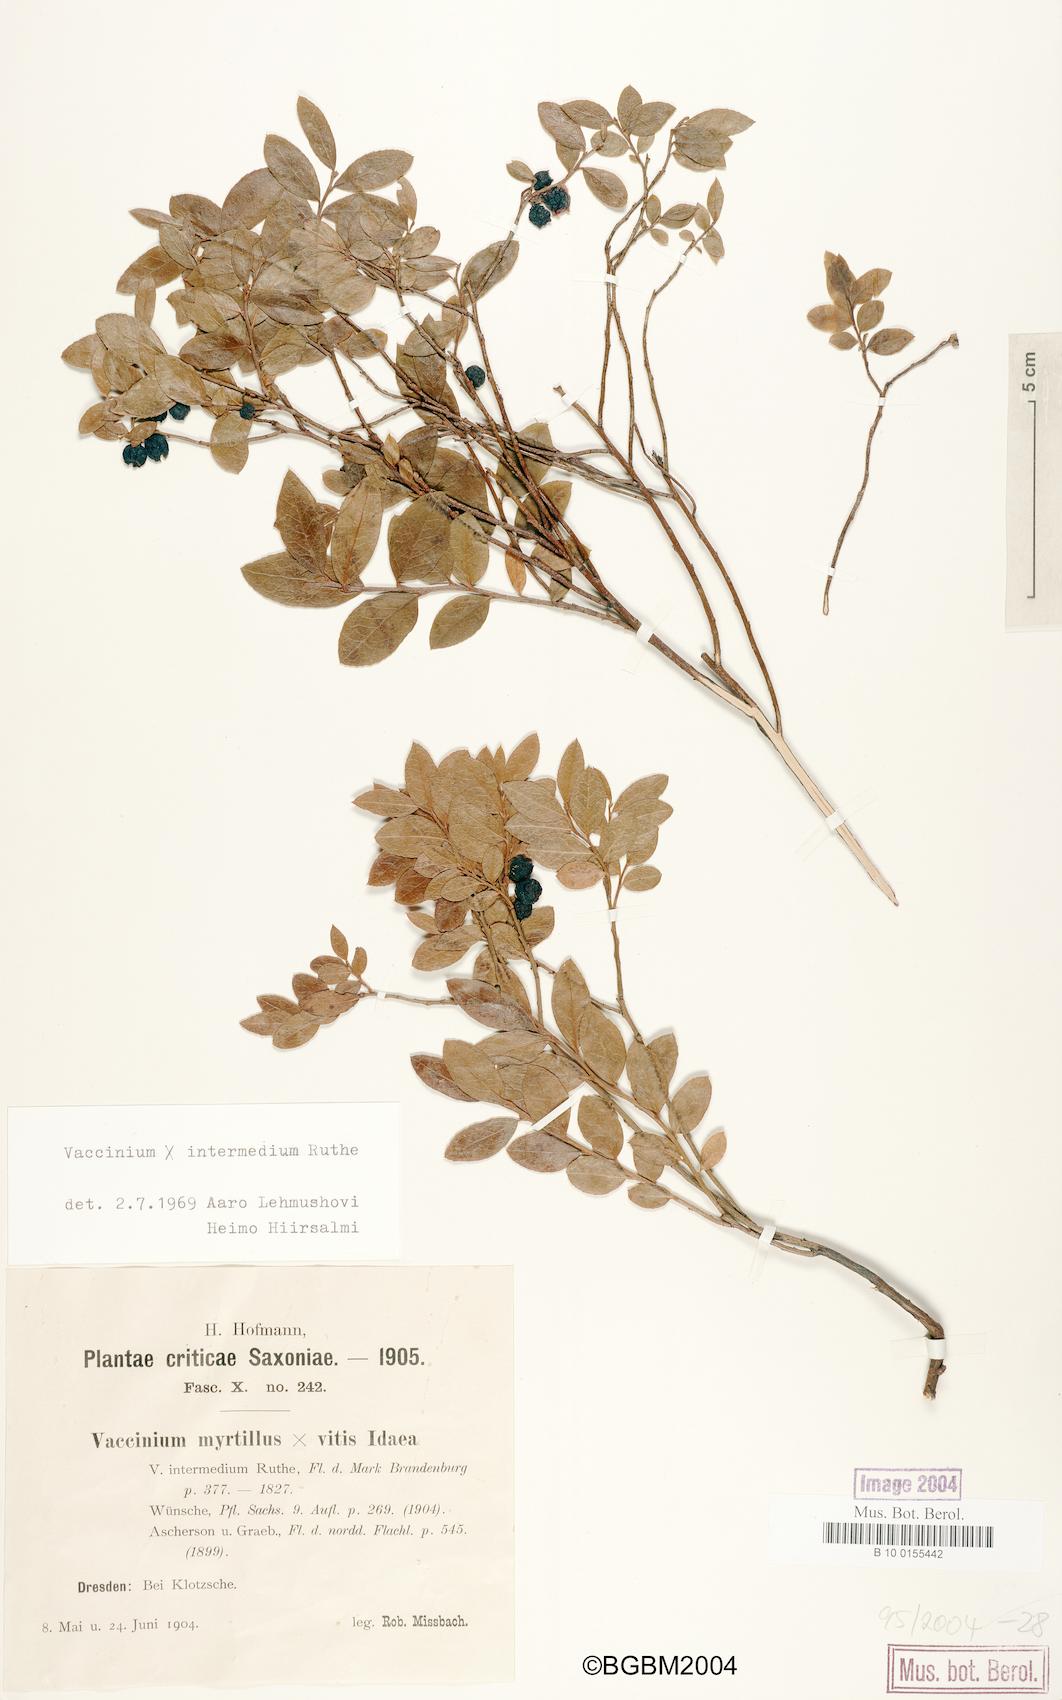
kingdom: Plantae
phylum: Tracheophyta
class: Magnoliopsida
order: Ericales
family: Ericaceae
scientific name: Ericaceae
